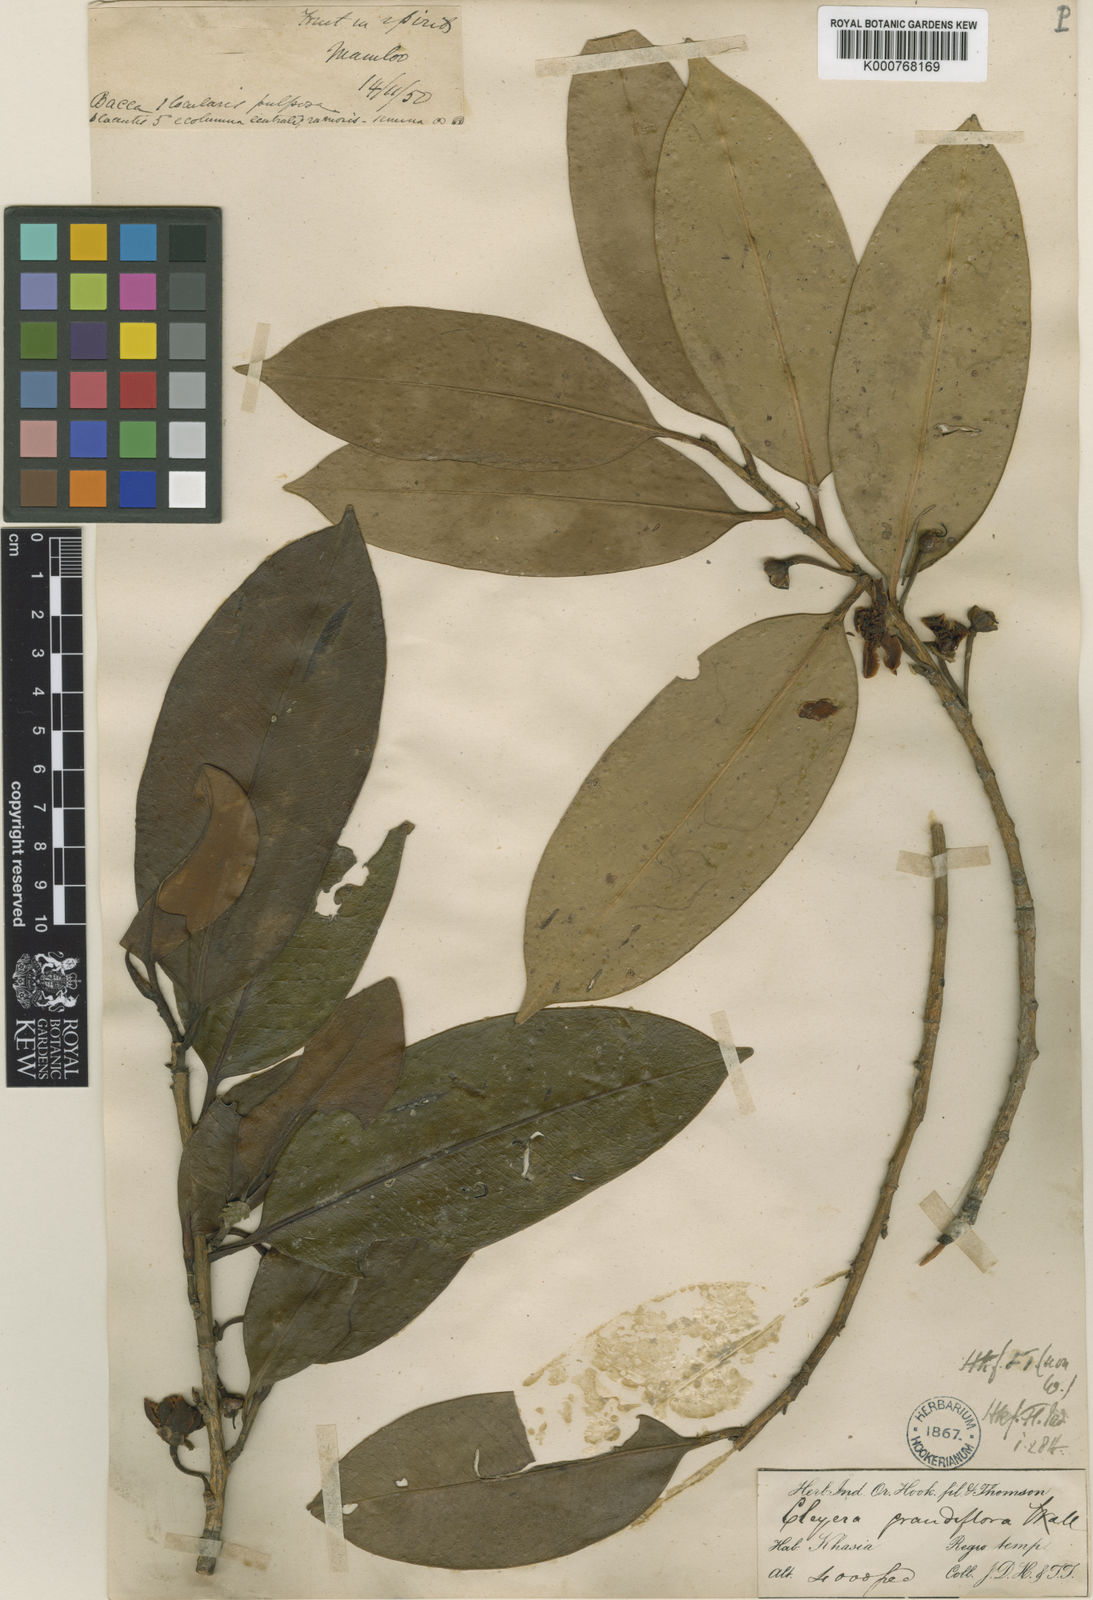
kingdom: Plantae
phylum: Tracheophyta
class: Magnoliopsida
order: Ericales
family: Pentaphylacaceae
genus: Cleyera
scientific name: Cleyera
